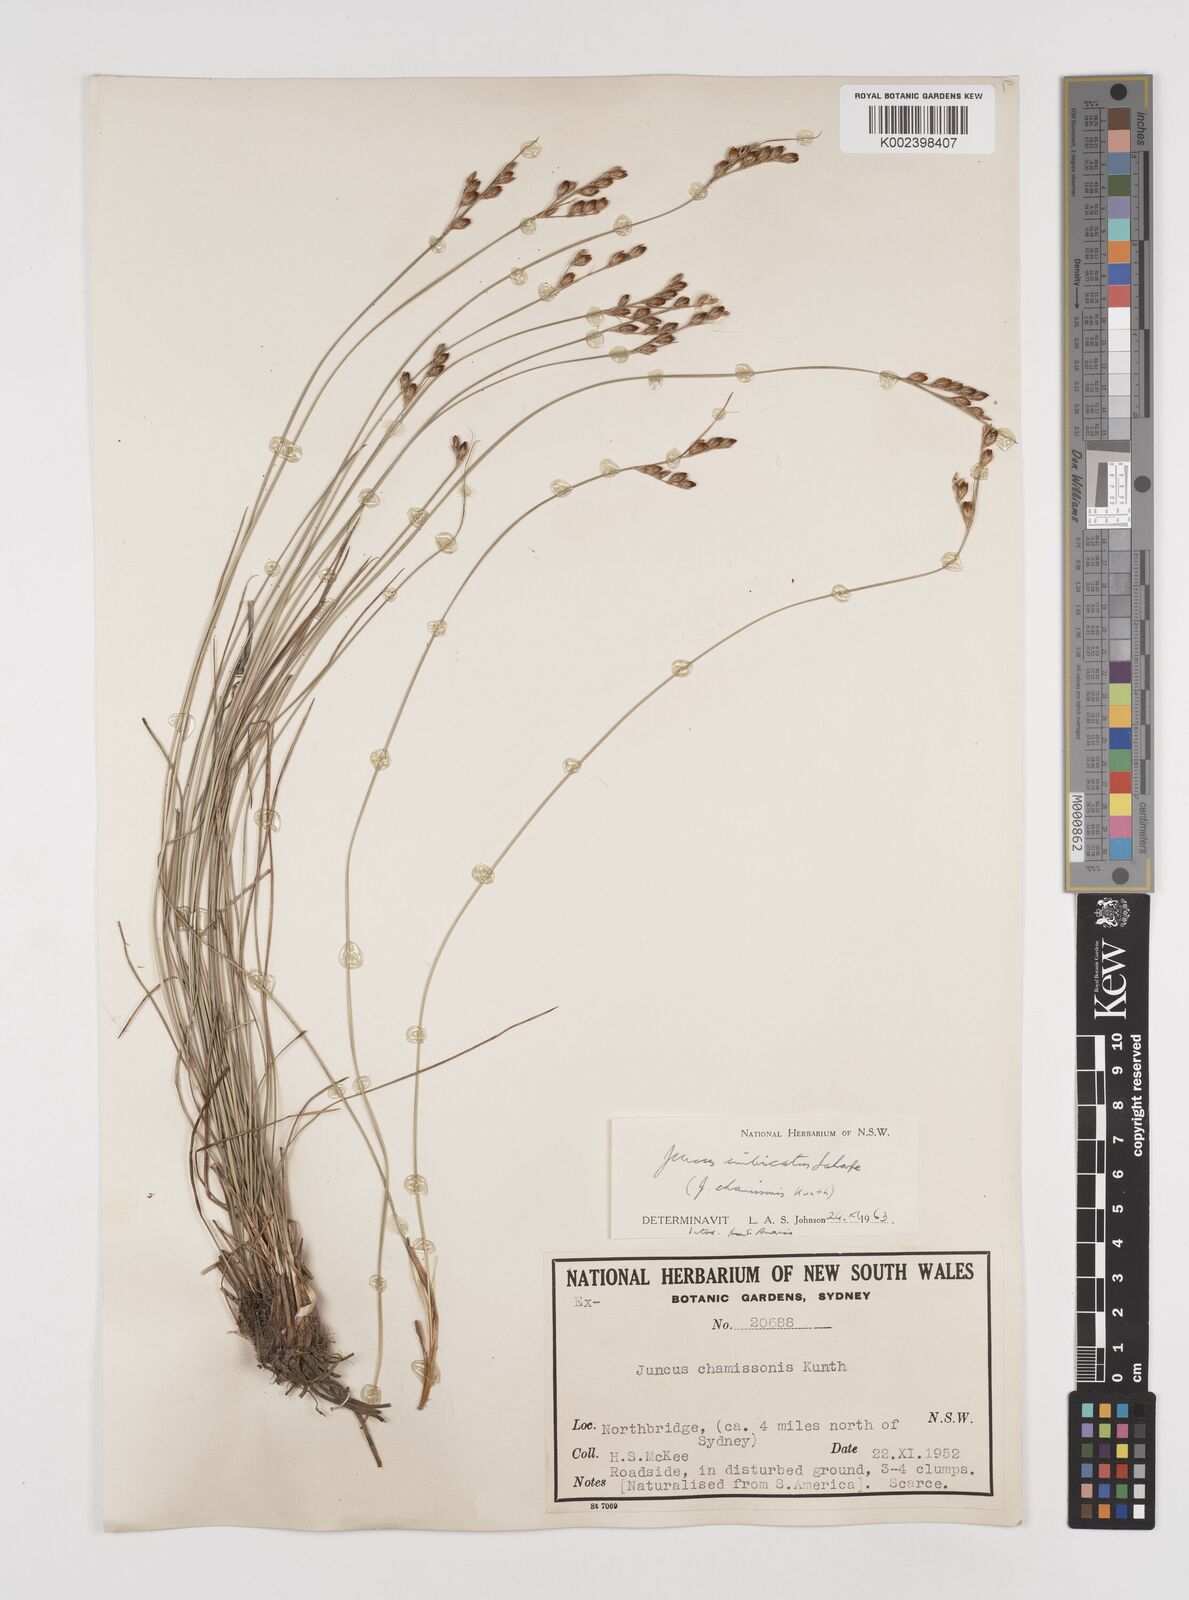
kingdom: Plantae
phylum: Tracheophyta
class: Liliopsida
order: Poales
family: Juncaceae
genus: Juncus
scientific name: Juncus imbricatus
